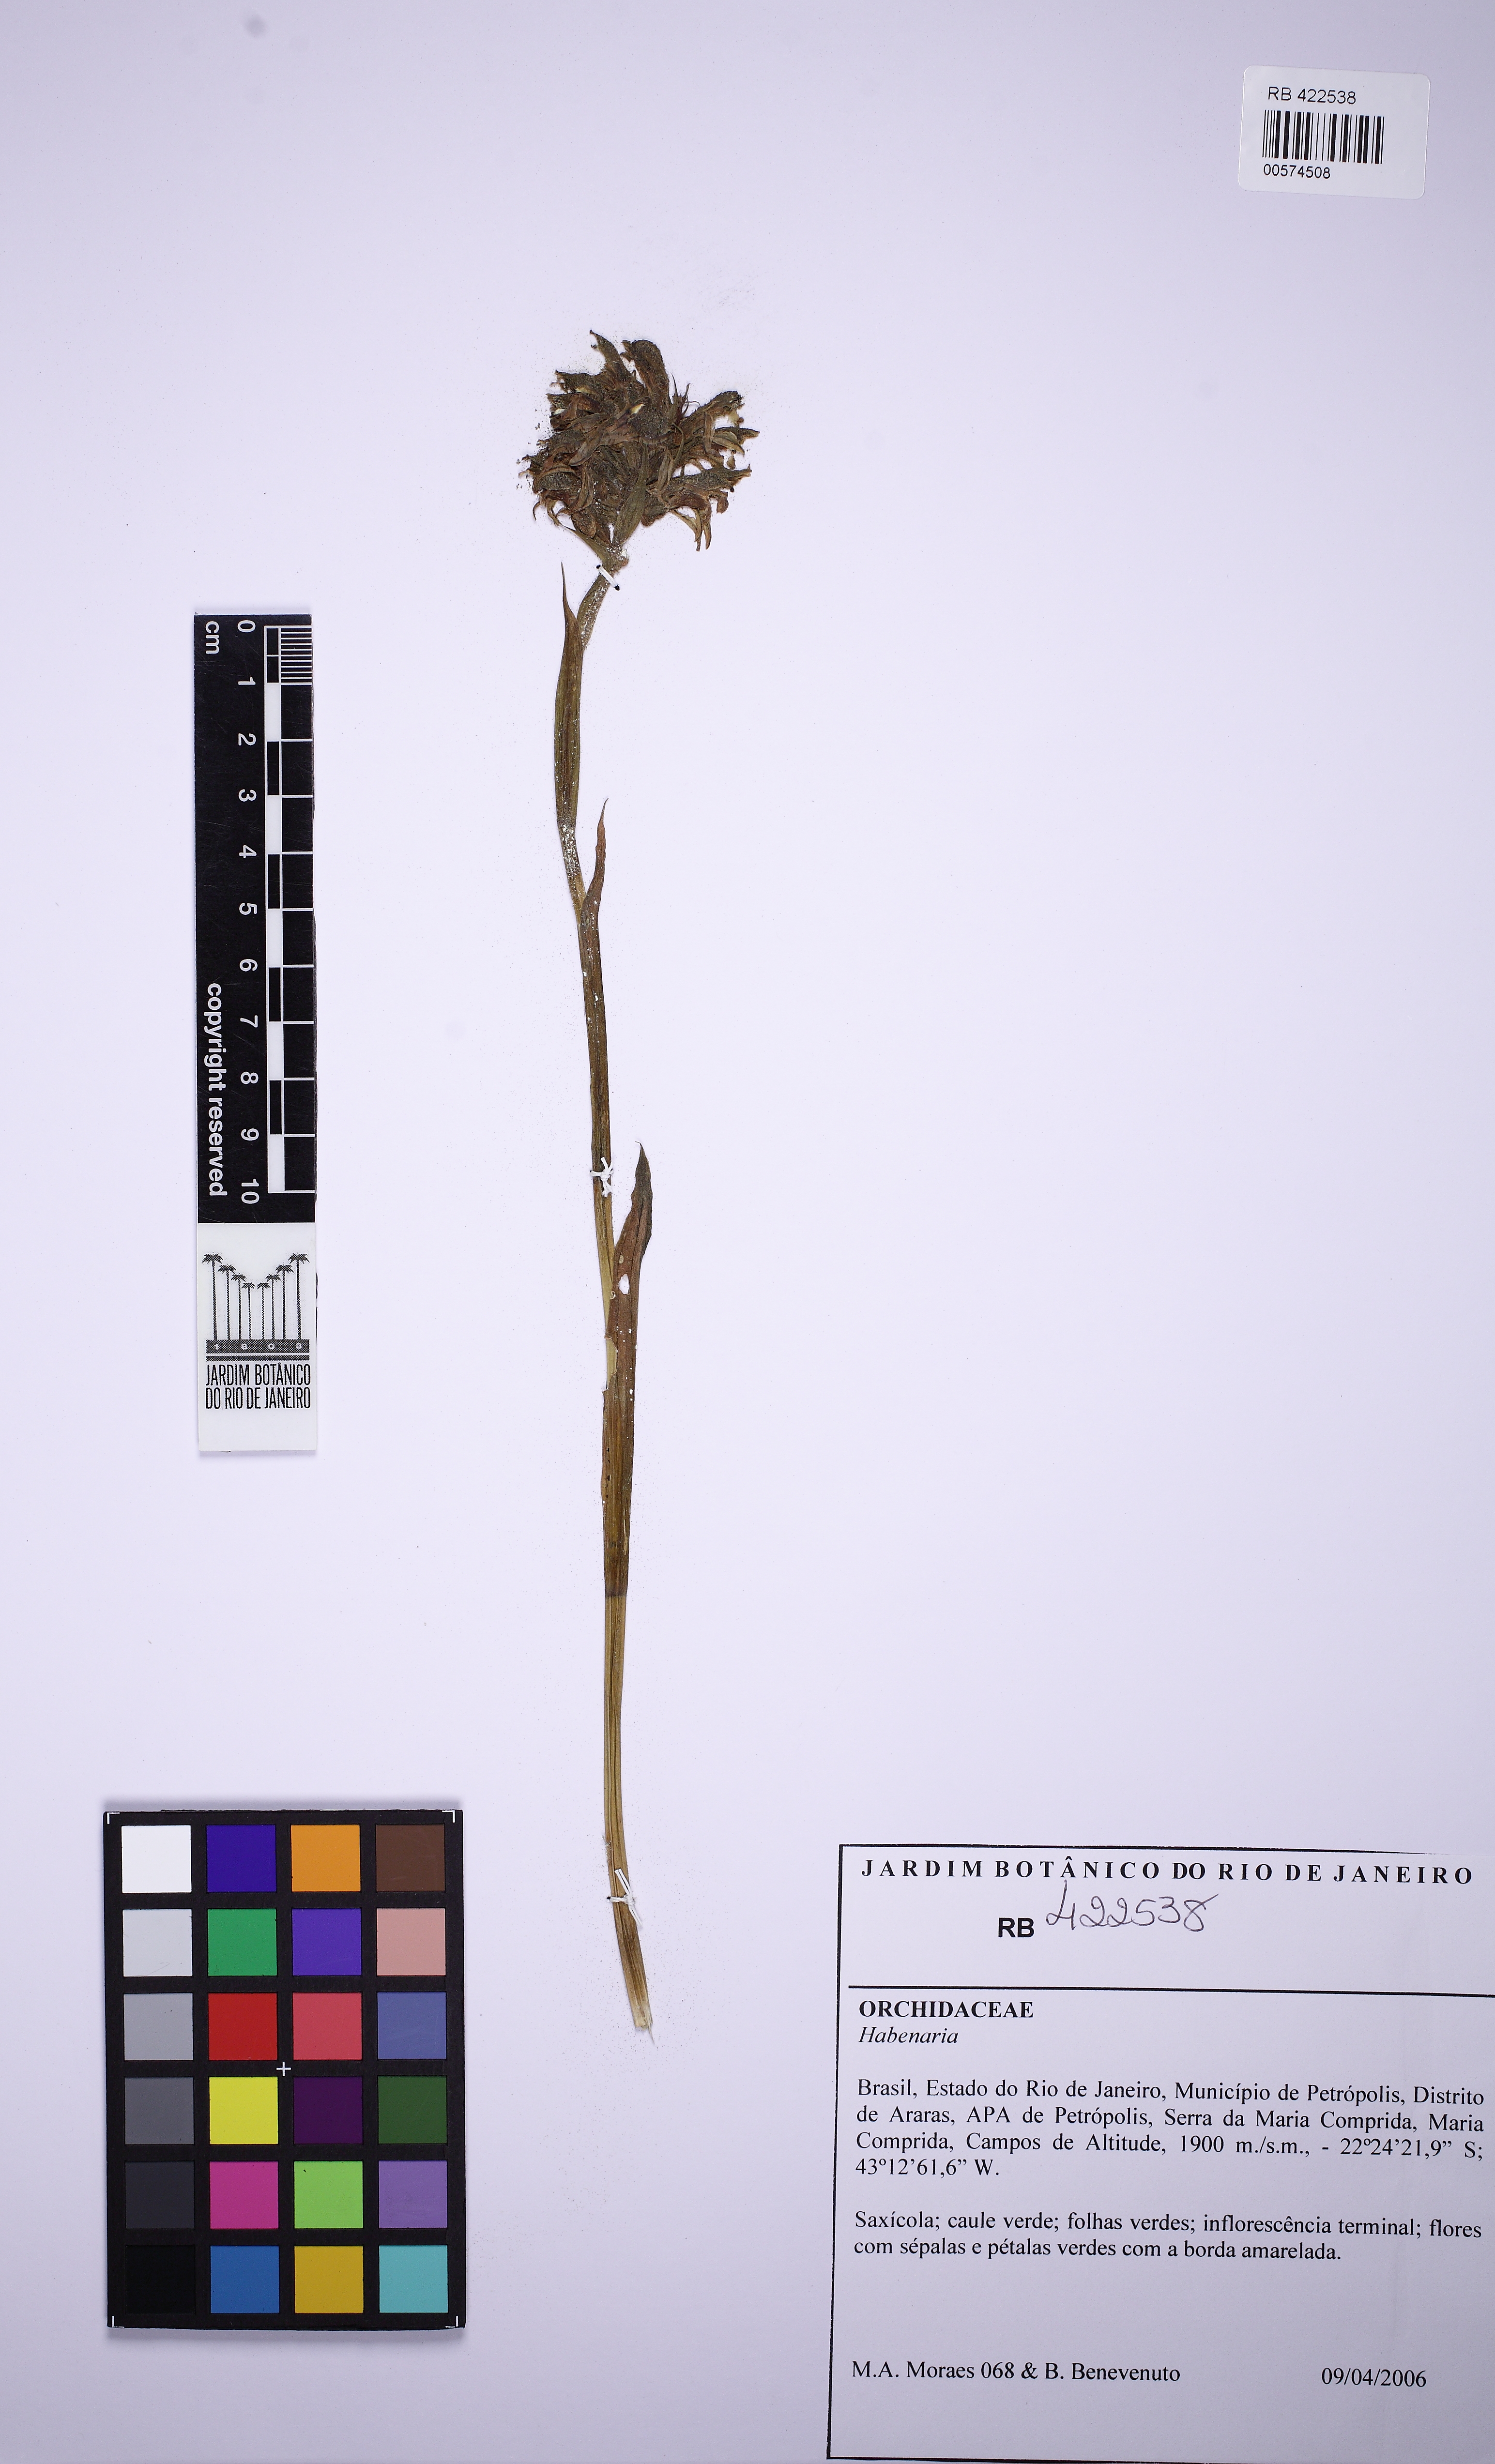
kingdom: Plantae
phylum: Tracheophyta
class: Liliopsida
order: Asparagales
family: Orchidaceae
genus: Pelexia
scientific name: Pelexia itatiayae
